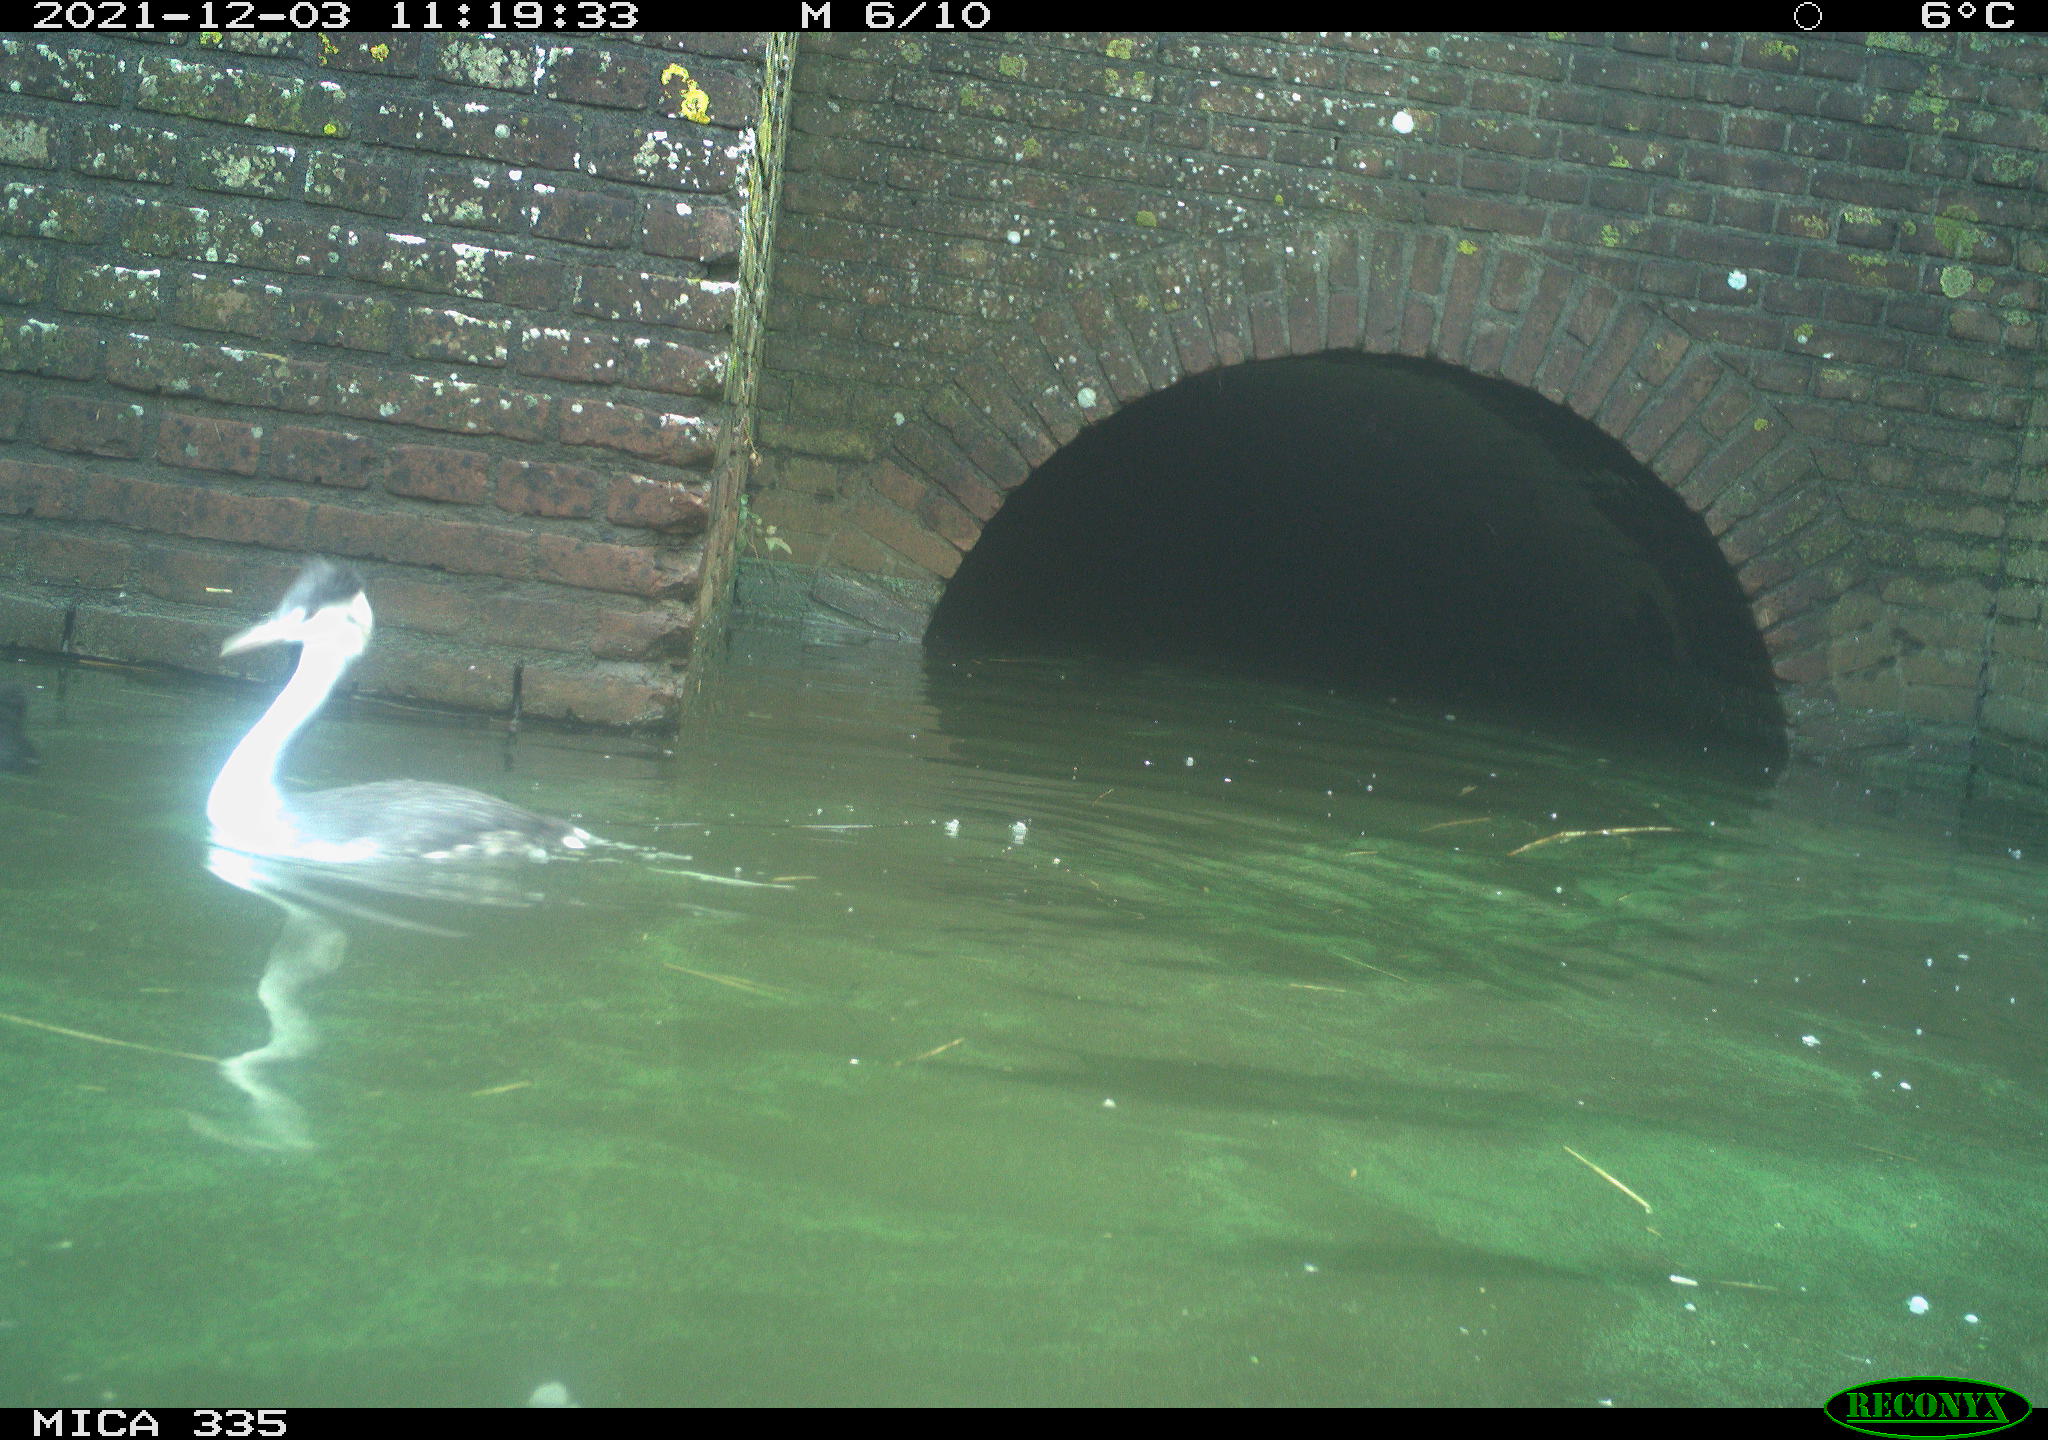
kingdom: Animalia
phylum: Chordata
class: Aves
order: Podicipediformes
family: Podicipedidae
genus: Podiceps
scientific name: Podiceps cristatus
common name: Great crested grebe
